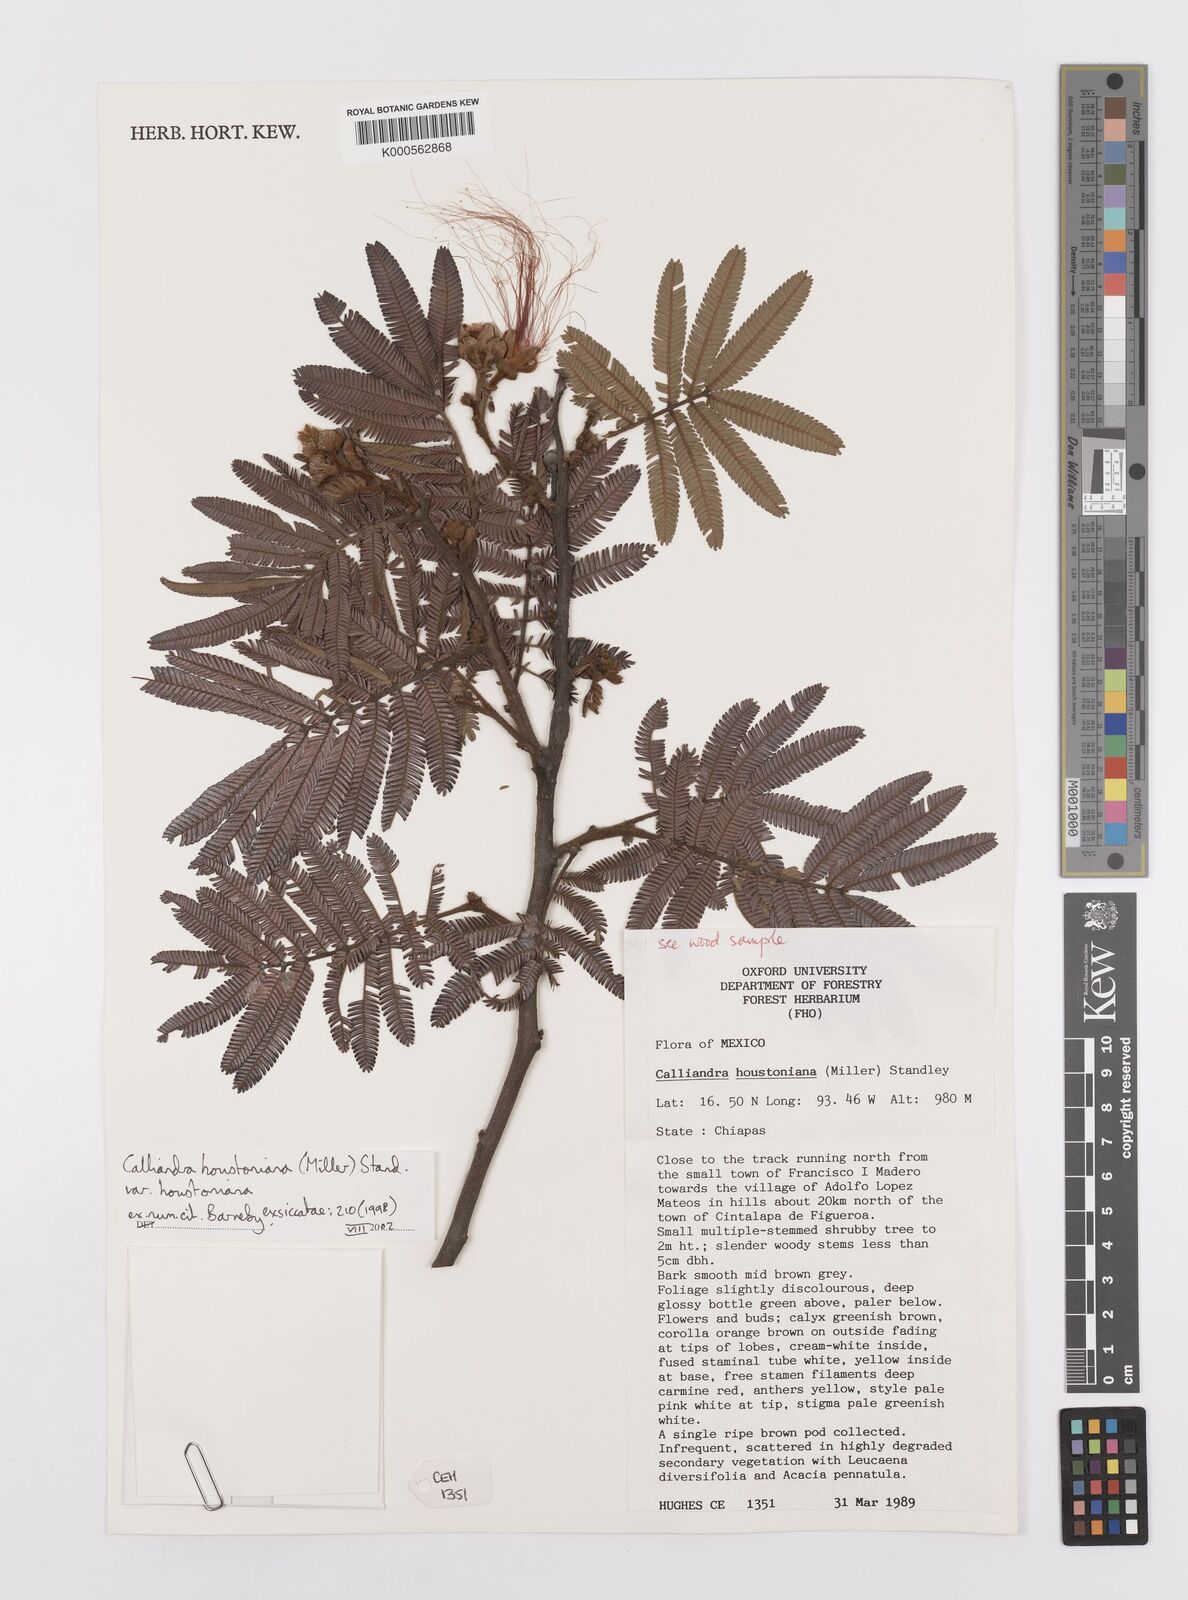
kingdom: Plantae
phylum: Tracheophyta
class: Magnoliopsida
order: Fabales
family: Fabaceae
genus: Calliandra
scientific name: Calliandra houstoniana
